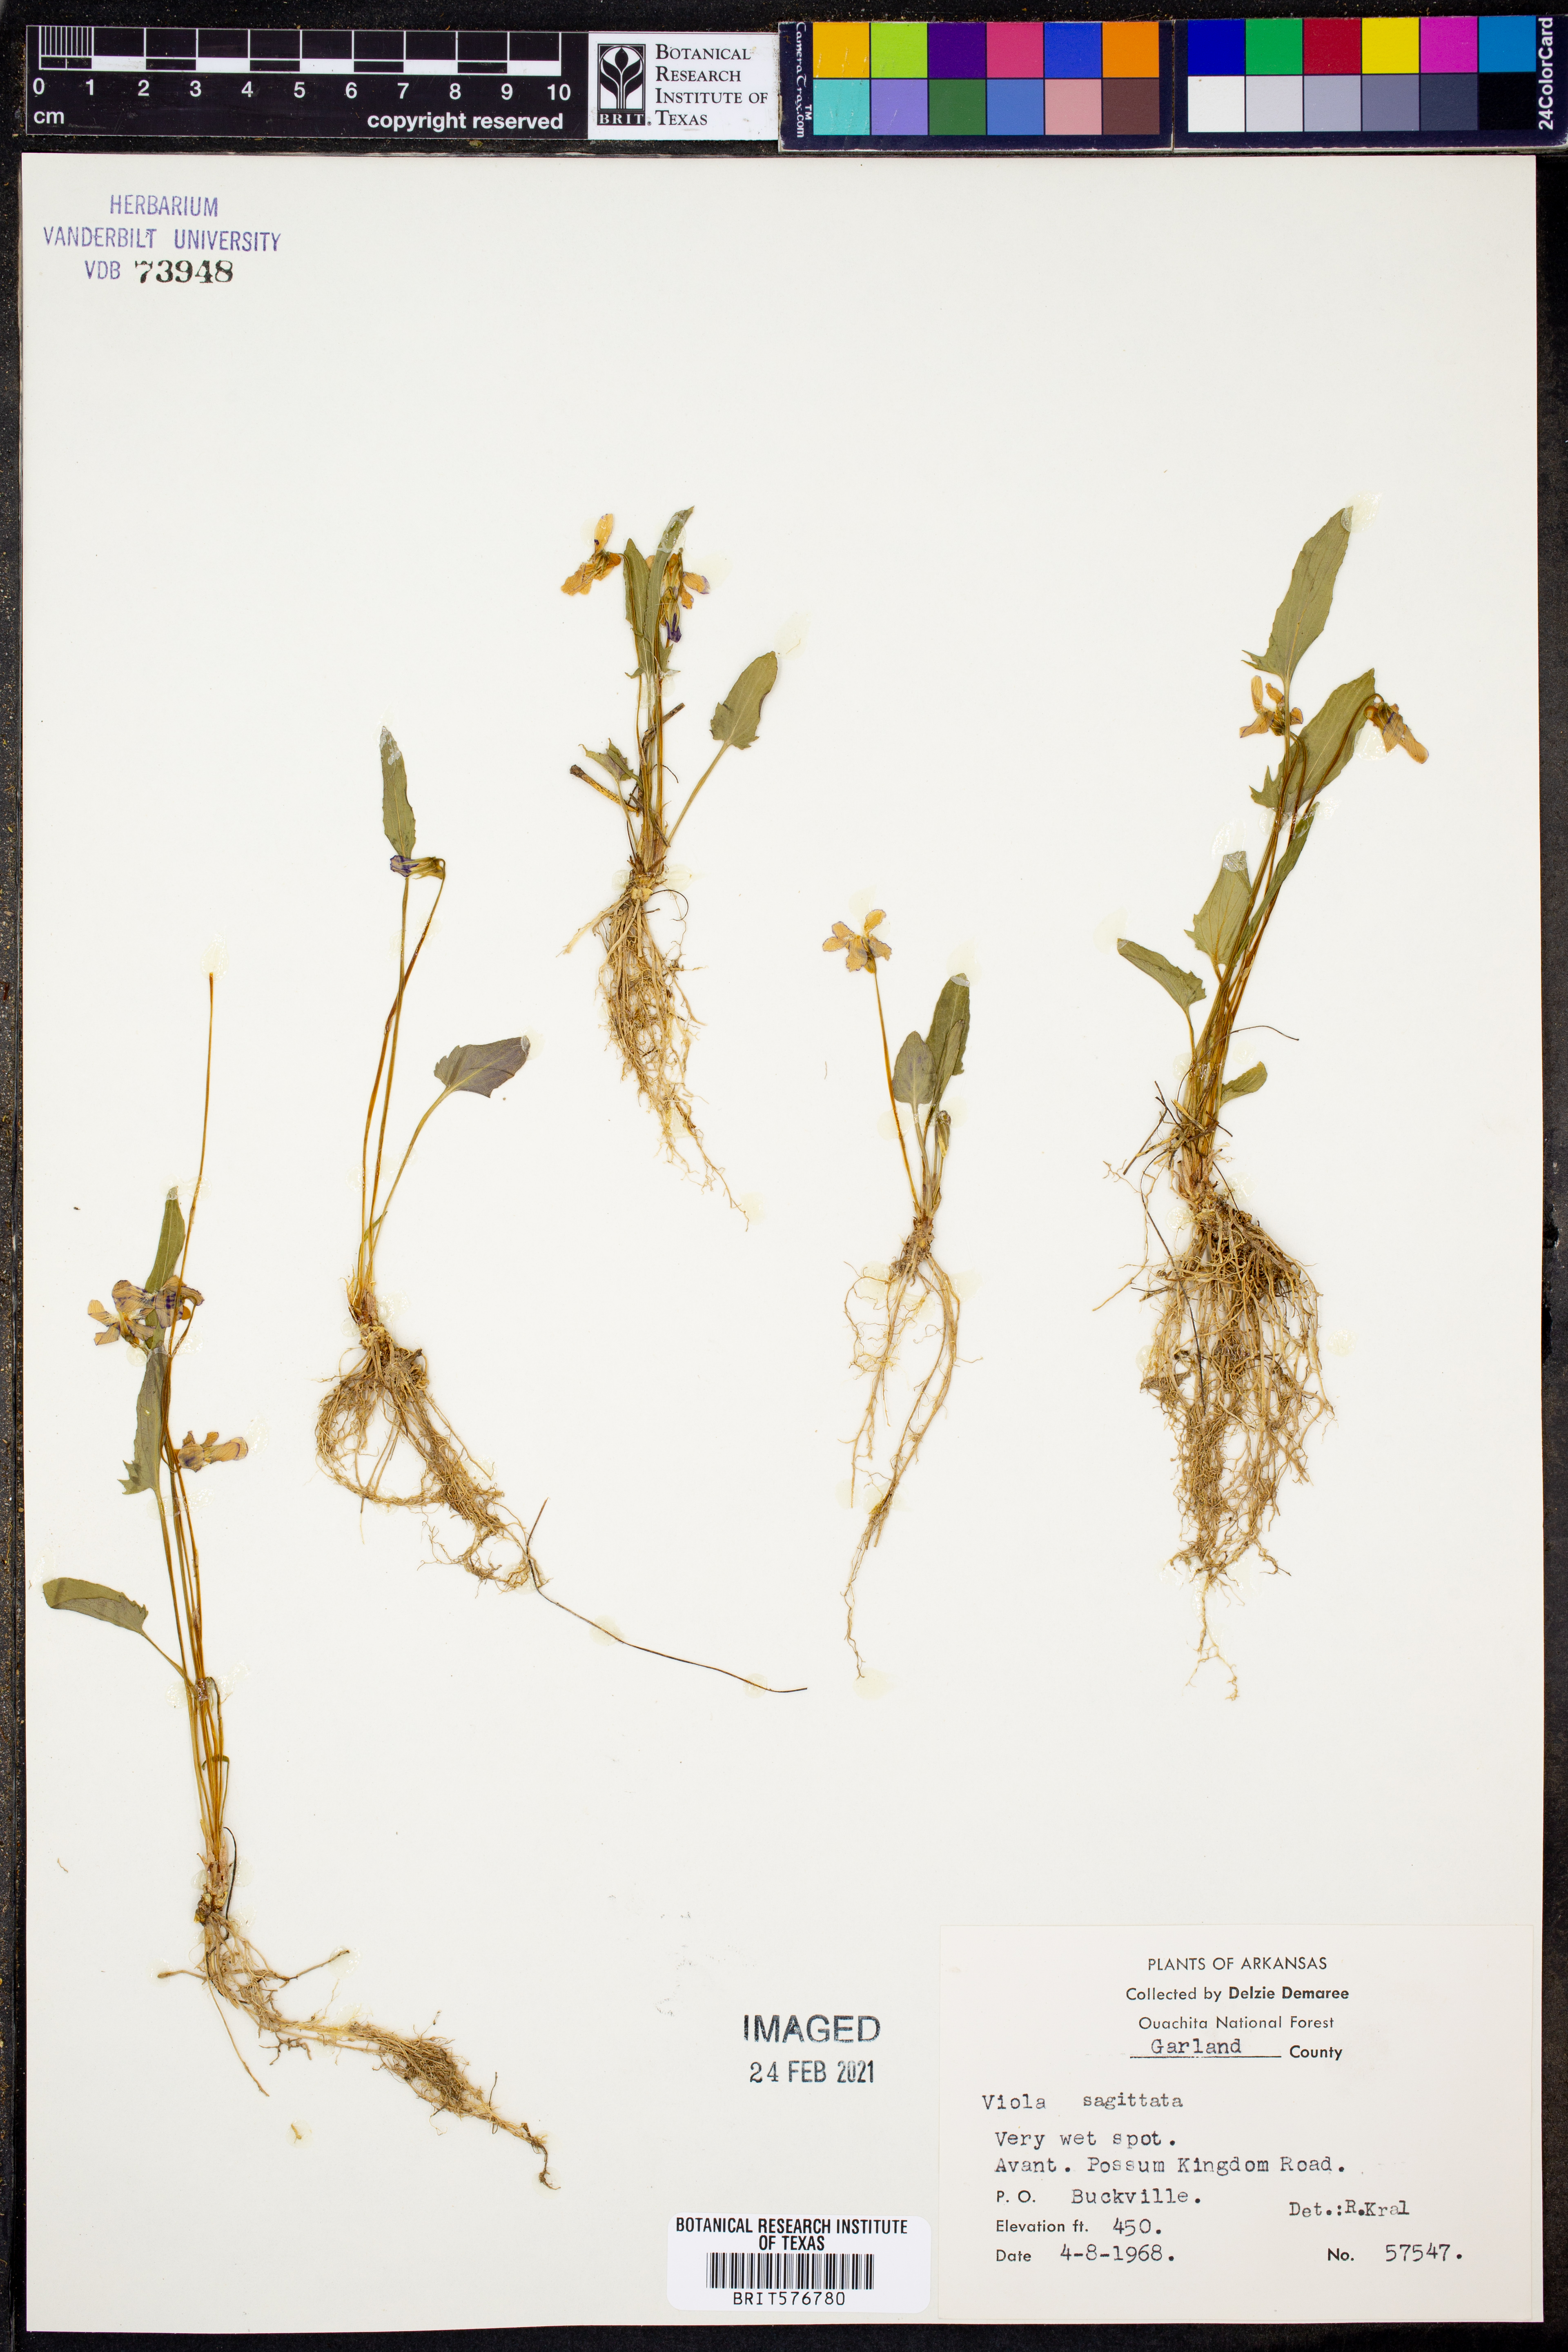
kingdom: Plantae
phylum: Tracheophyta
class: Magnoliopsida
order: Malpighiales
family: Violaceae
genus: Viola
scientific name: Viola sagittata
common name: Arrowhead violet
